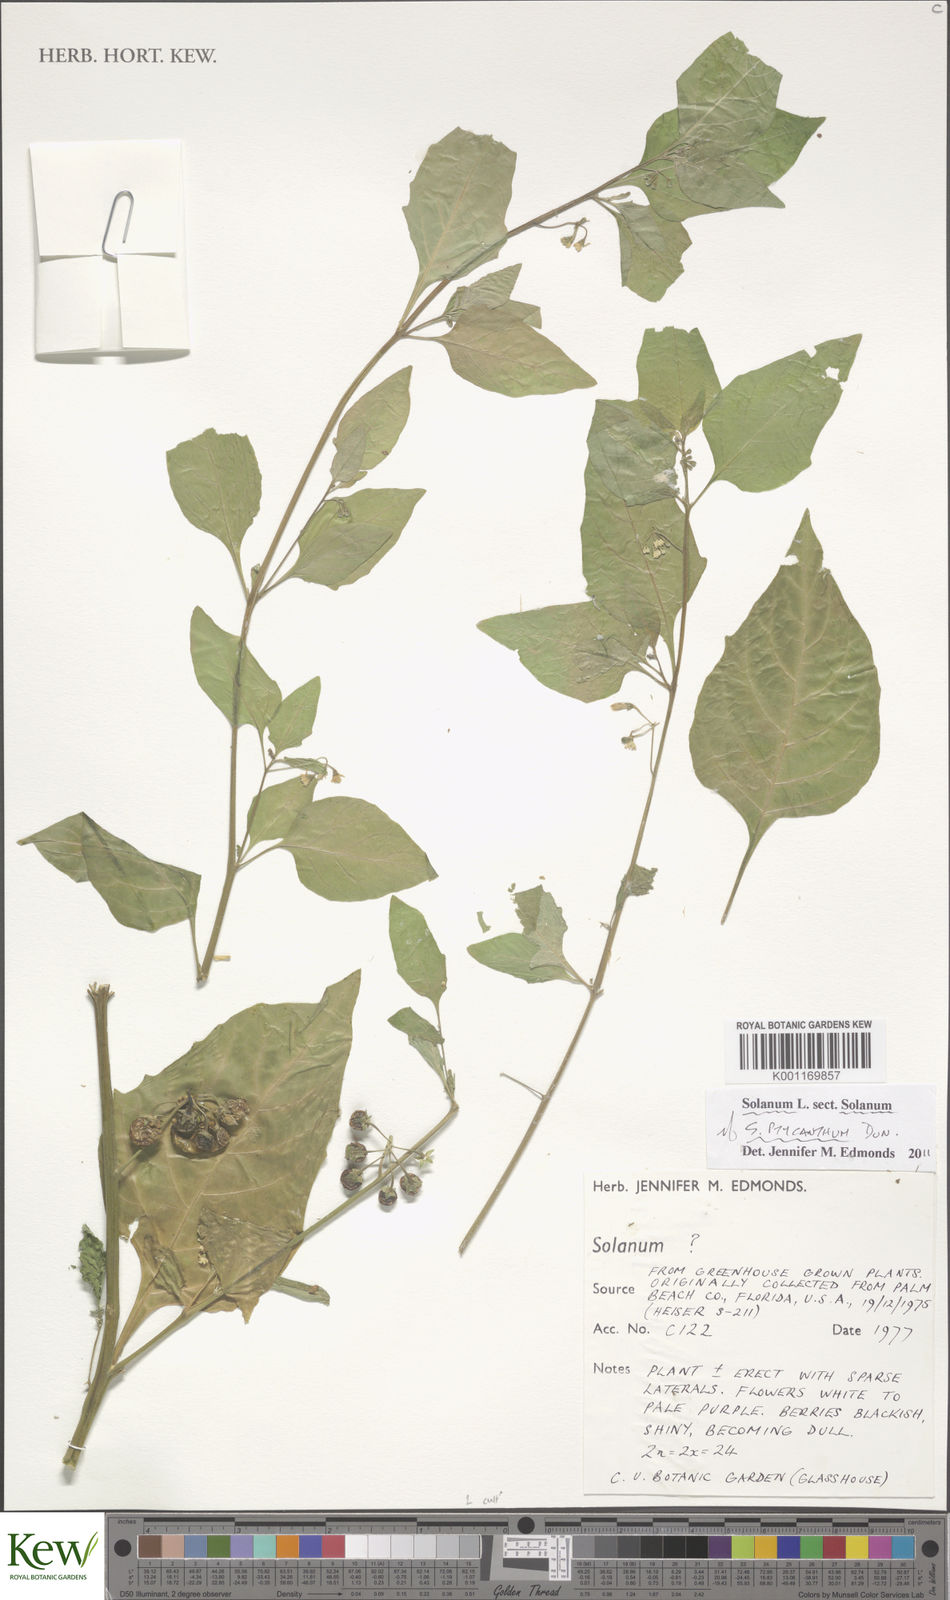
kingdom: Plantae
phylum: Tracheophyta
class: Magnoliopsida
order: Solanales
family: Solanaceae
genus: Solanum
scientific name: Solanum americanum
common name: American black nightshade
